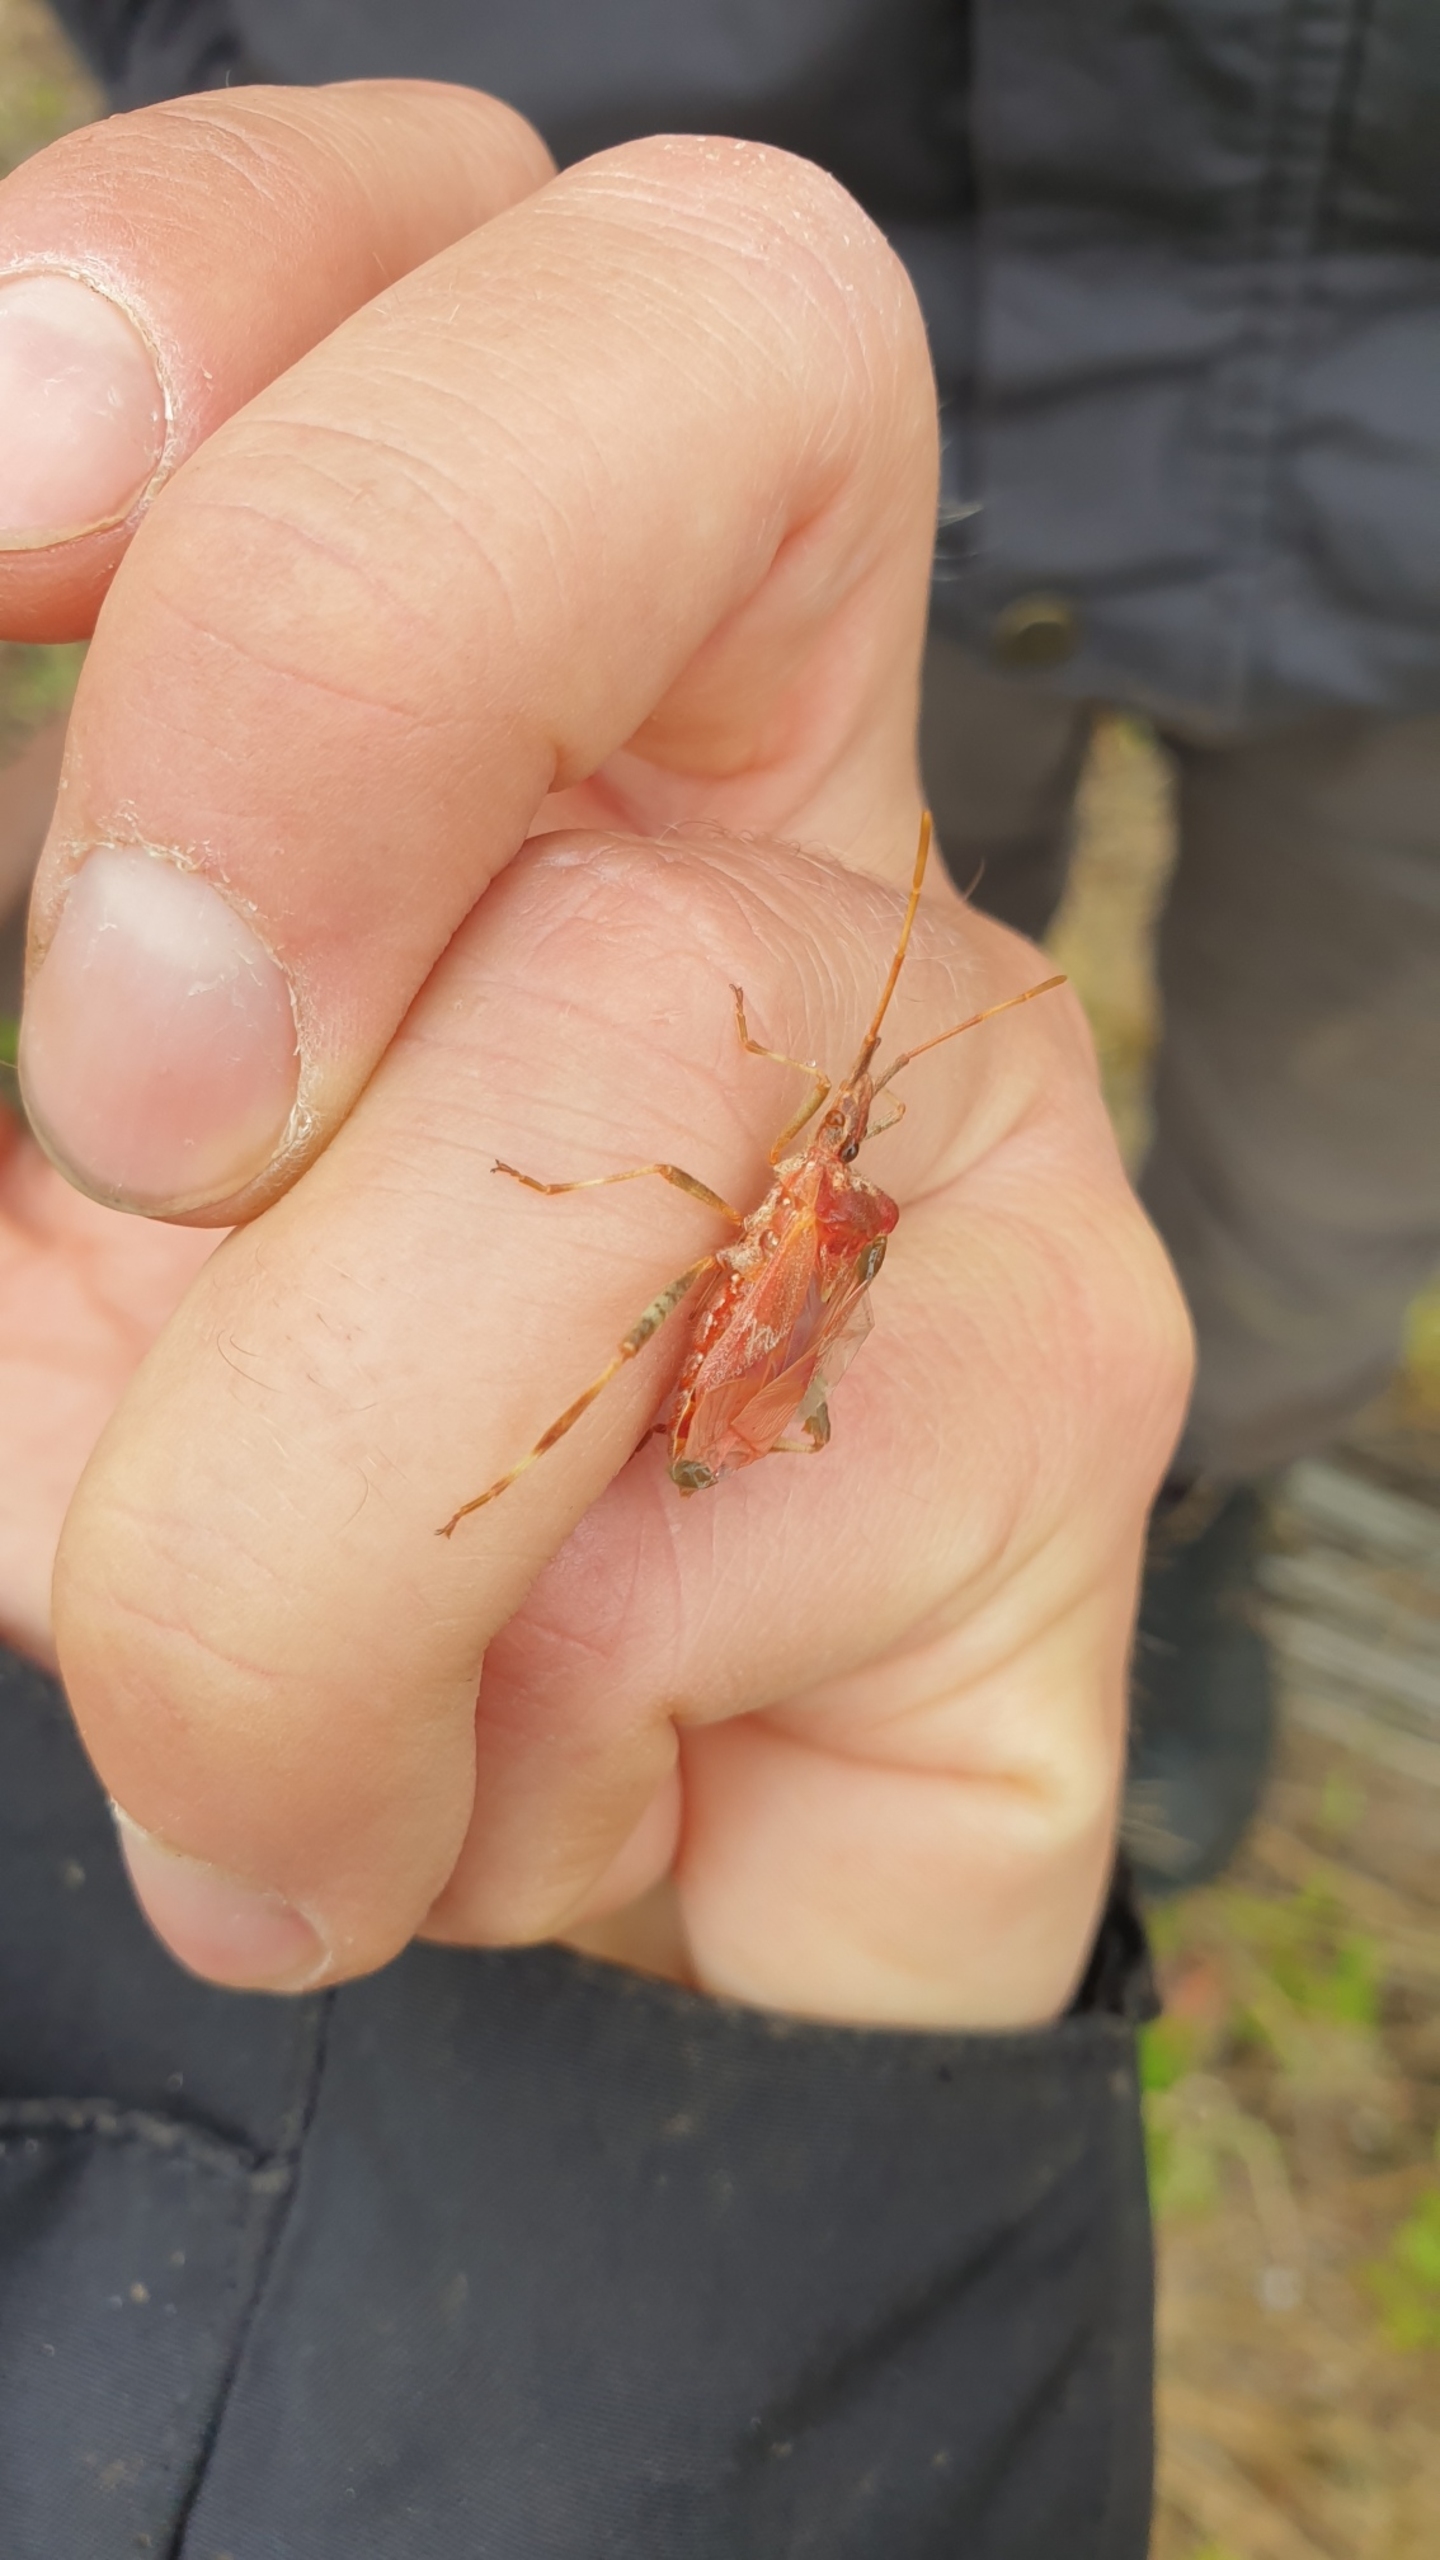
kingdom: Animalia
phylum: Arthropoda
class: Insecta
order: Hemiptera
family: Coreidae
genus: Leptoglossus
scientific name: Leptoglossus occidentalis
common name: Amerikansk fyrretæge
